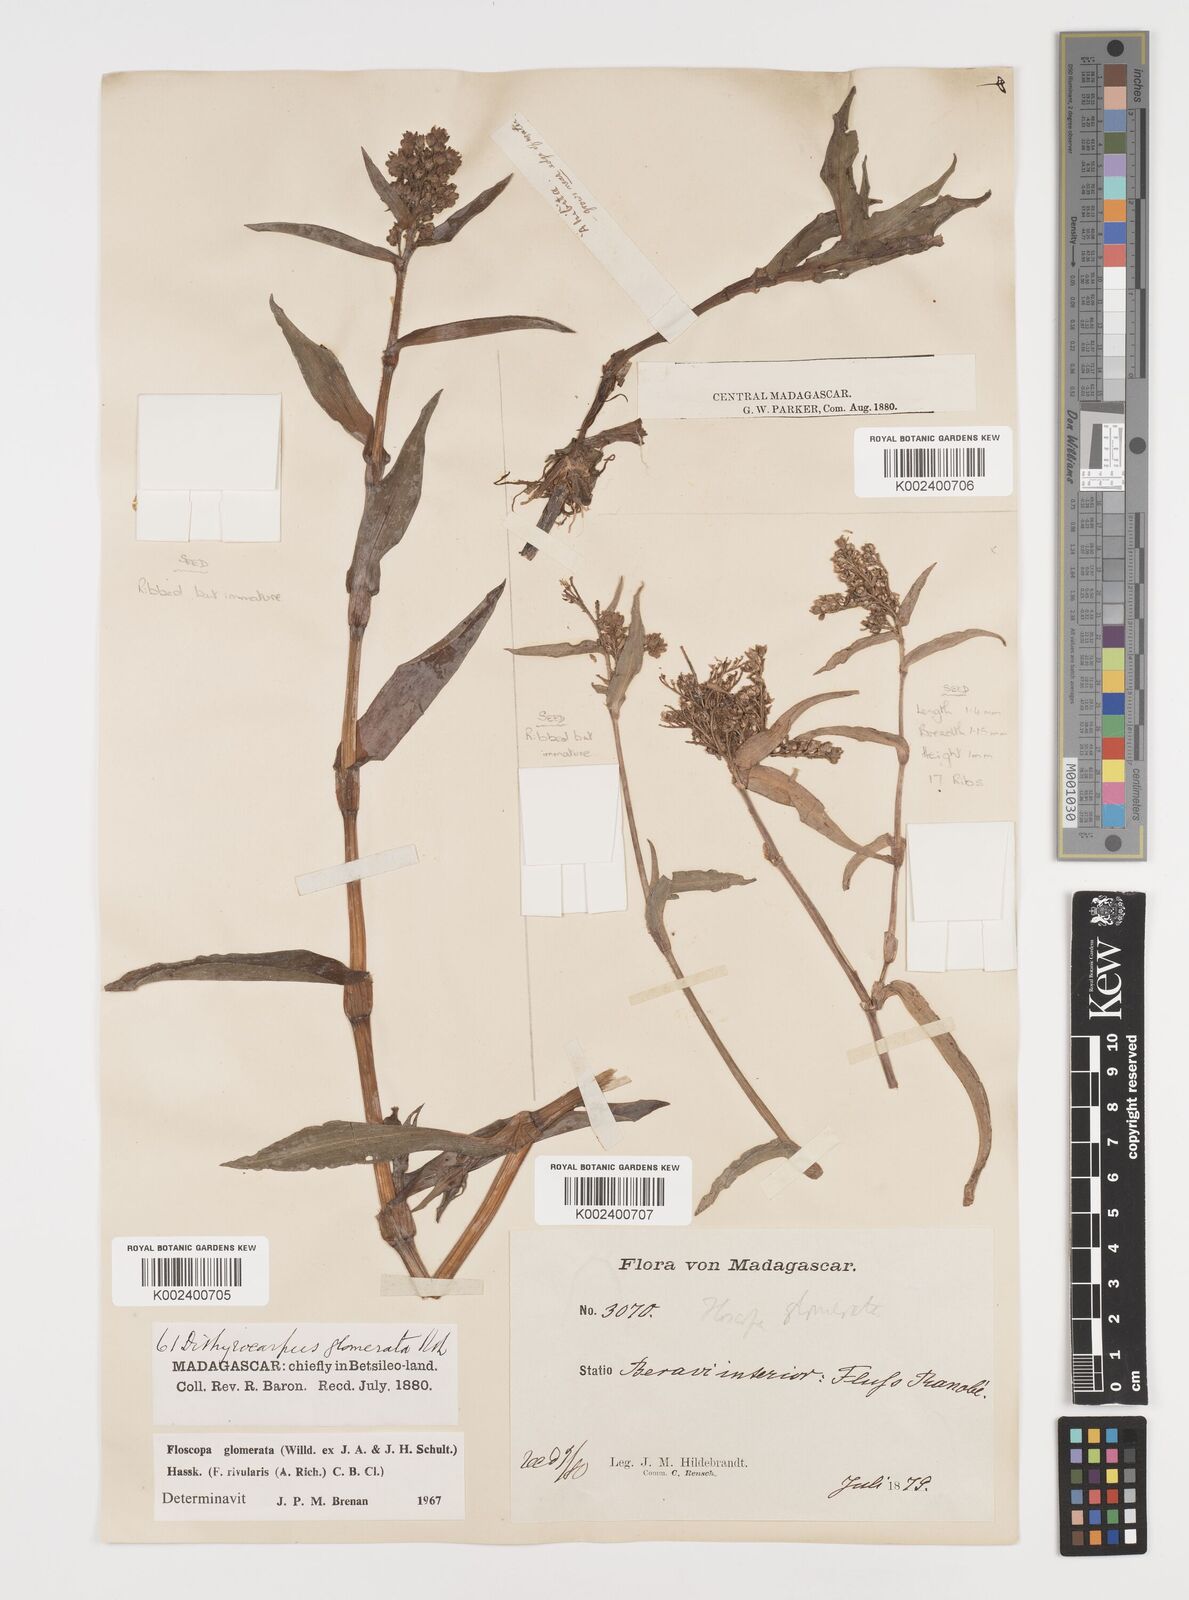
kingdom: Plantae
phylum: Tracheophyta
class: Liliopsida
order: Commelinales
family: Commelinaceae
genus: Floscopa
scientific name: Floscopa glomerata
